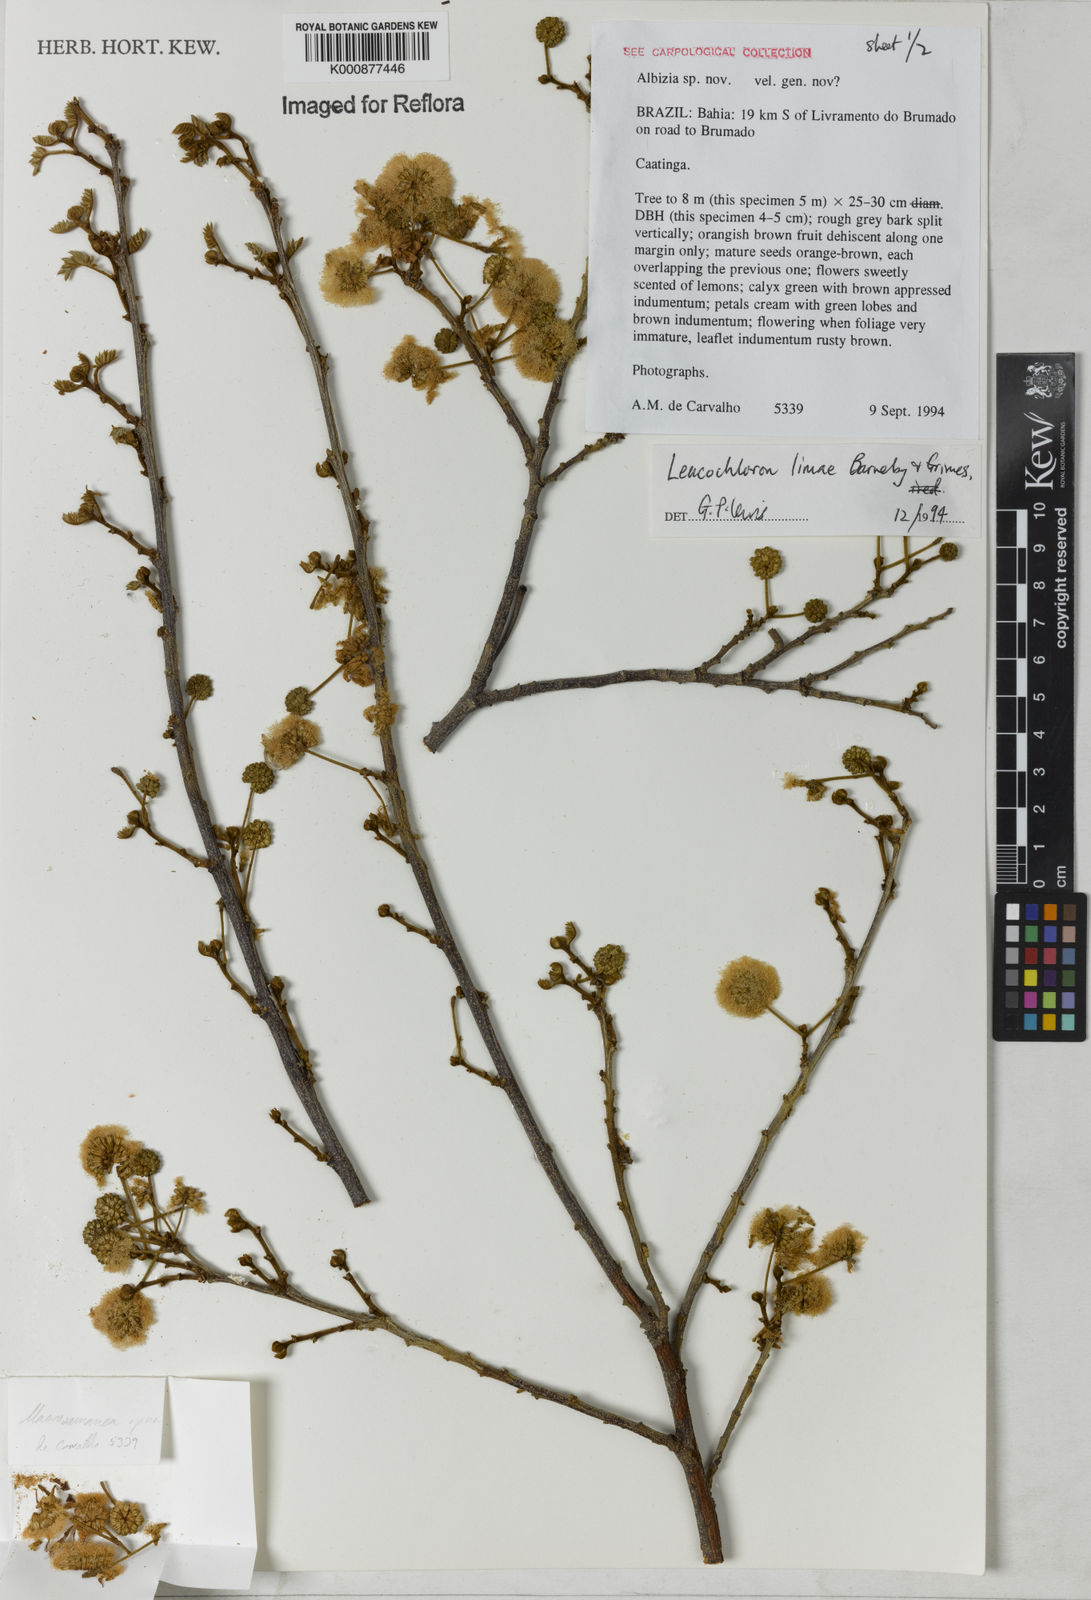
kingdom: Plantae
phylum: Tracheophyta
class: Magnoliopsida
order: Fabales
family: Fabaceae
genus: Leucochloron
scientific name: Leucochloron limae
